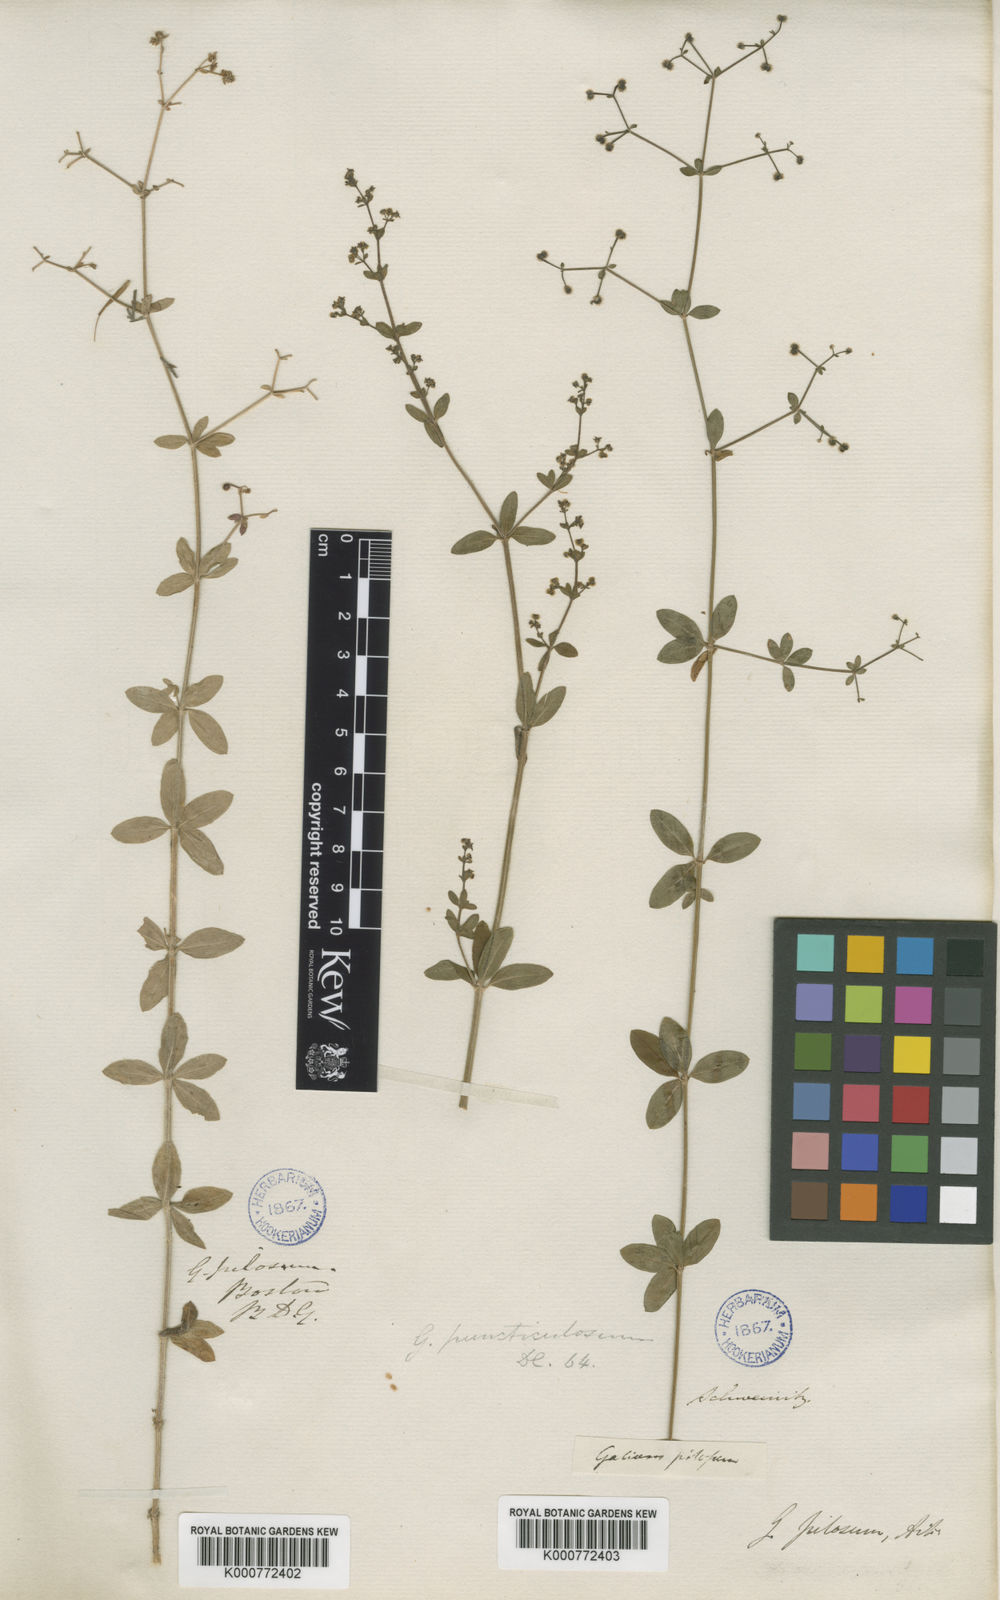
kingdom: Plantae
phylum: Tracheophyta
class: Magnoliopsida
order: Gentianales
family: Rubiaceae
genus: Galium
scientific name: Galium pilosum
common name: Hairy bedstraw
